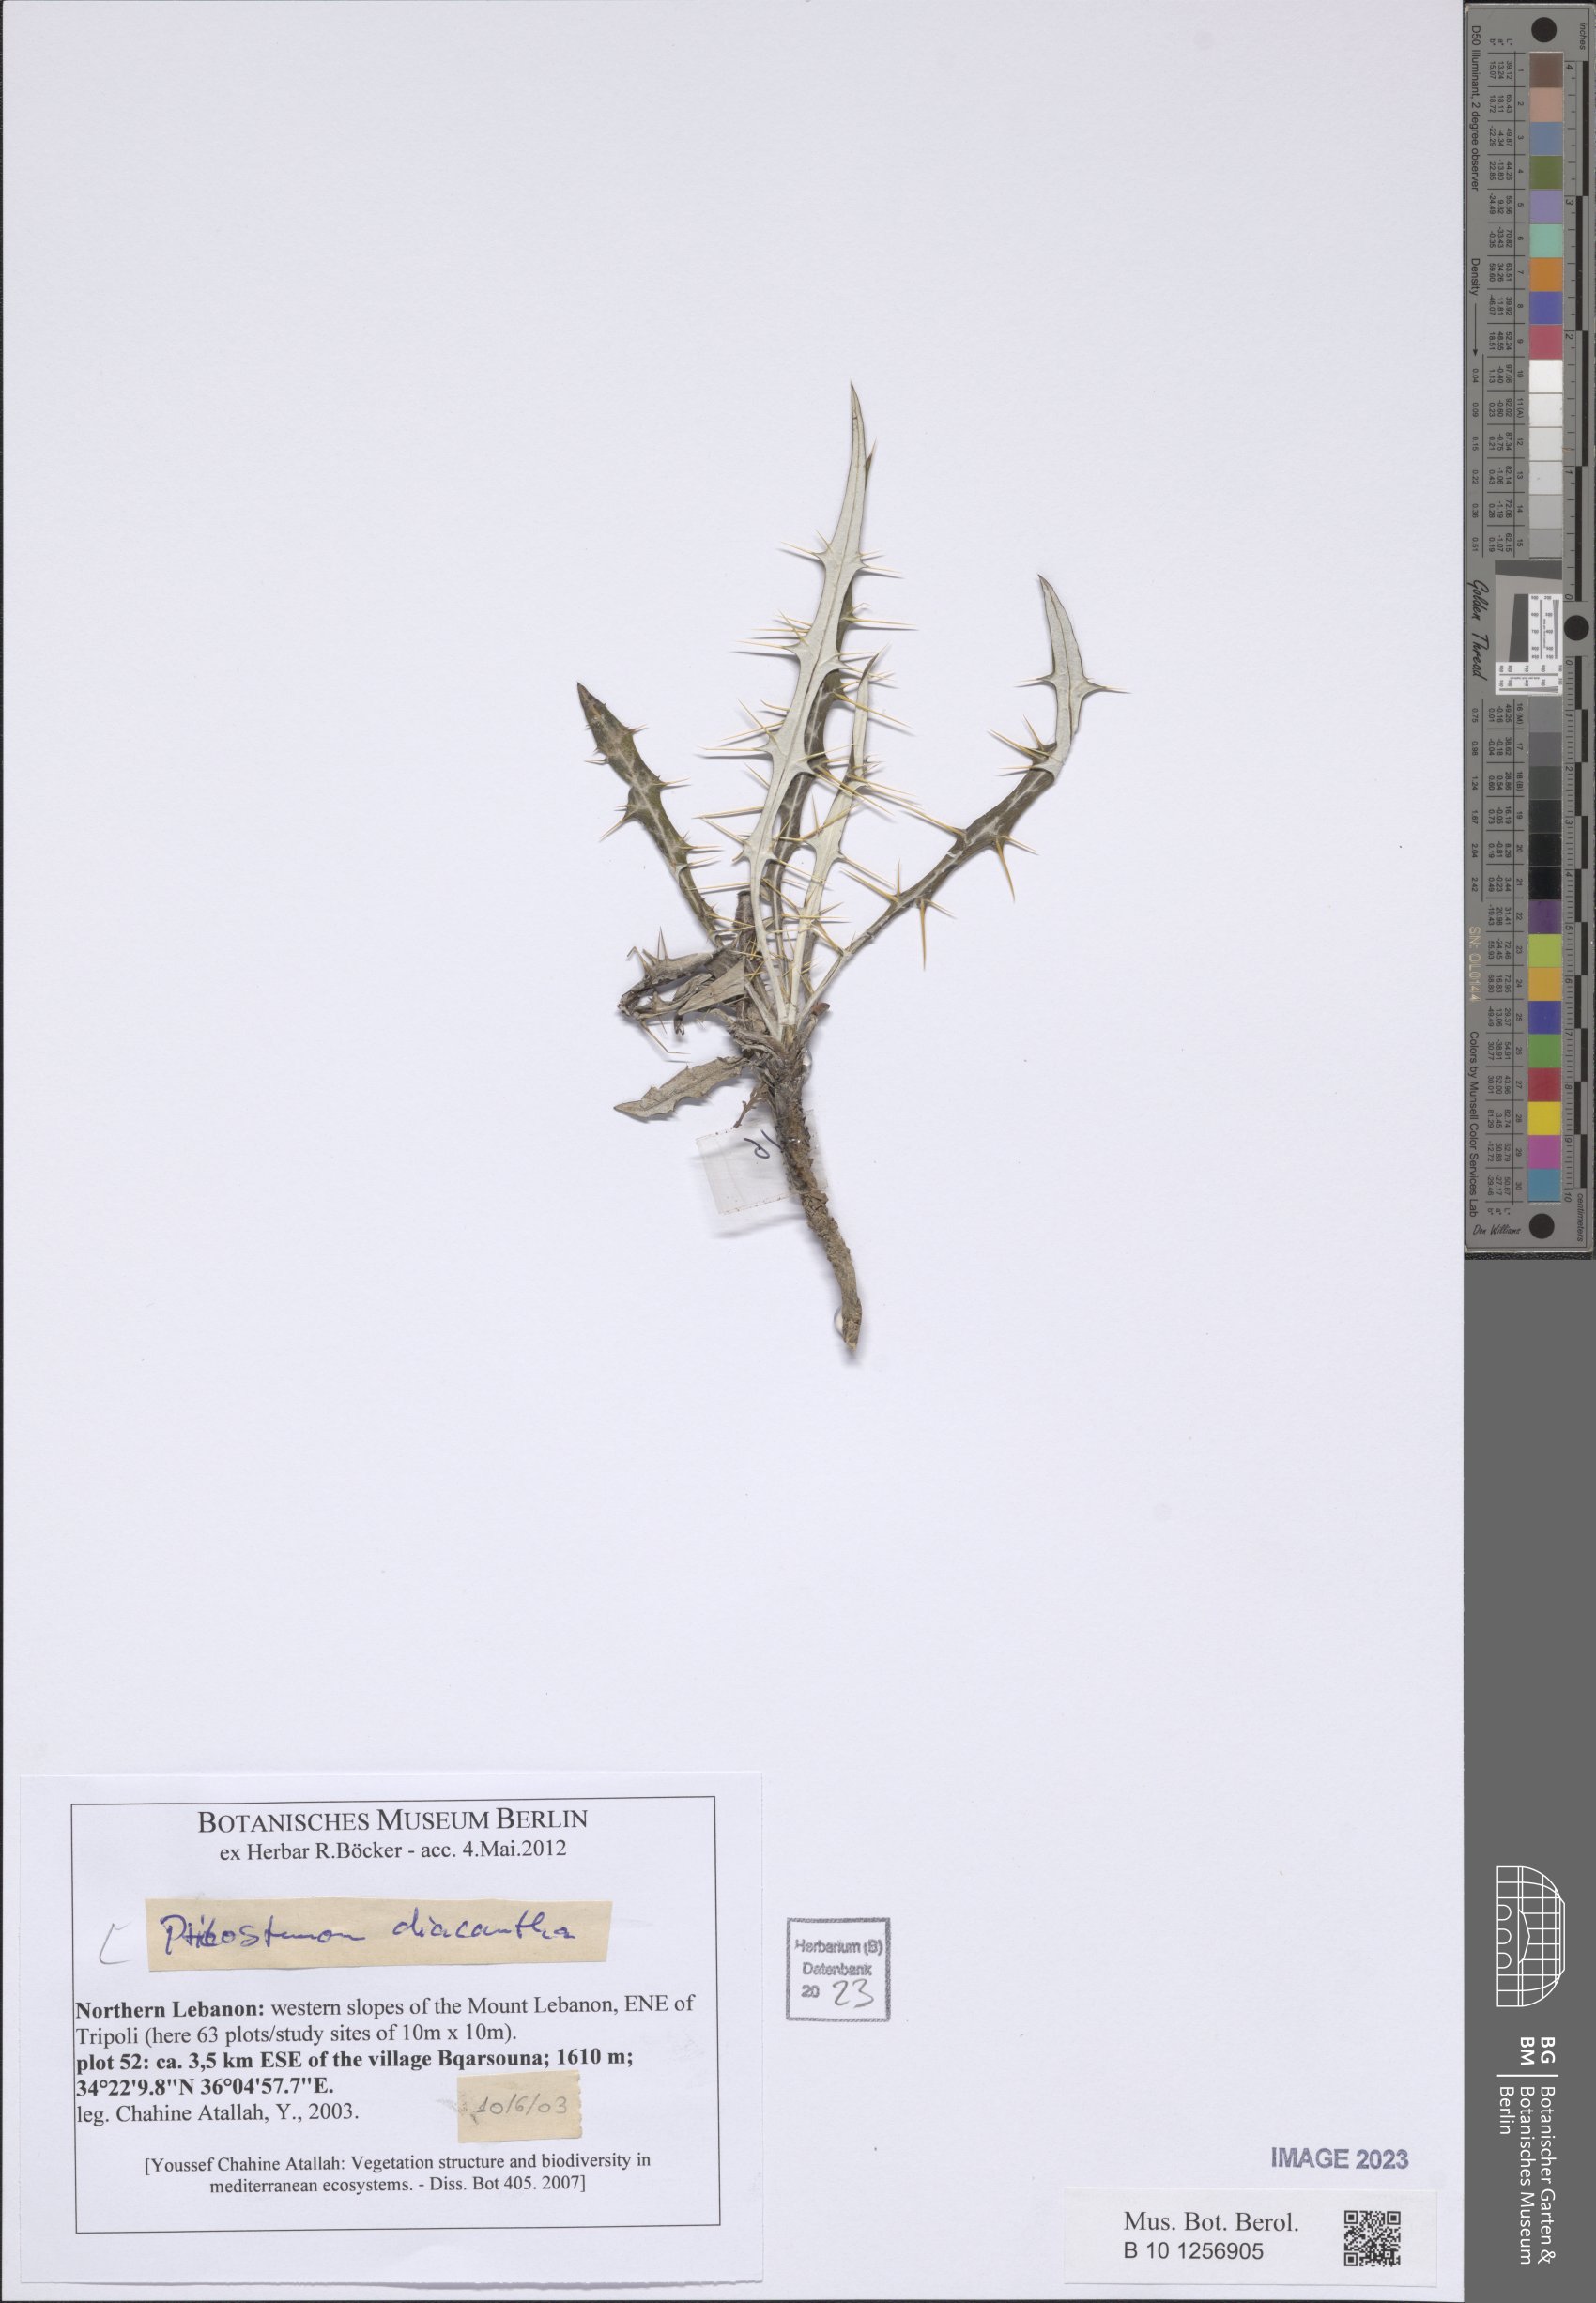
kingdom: Plantae
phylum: Tracheophyta
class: Magnoliopsida
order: Asterales
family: Asteraceae
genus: Ptilostemon
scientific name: Ptilostemon diacanthus
